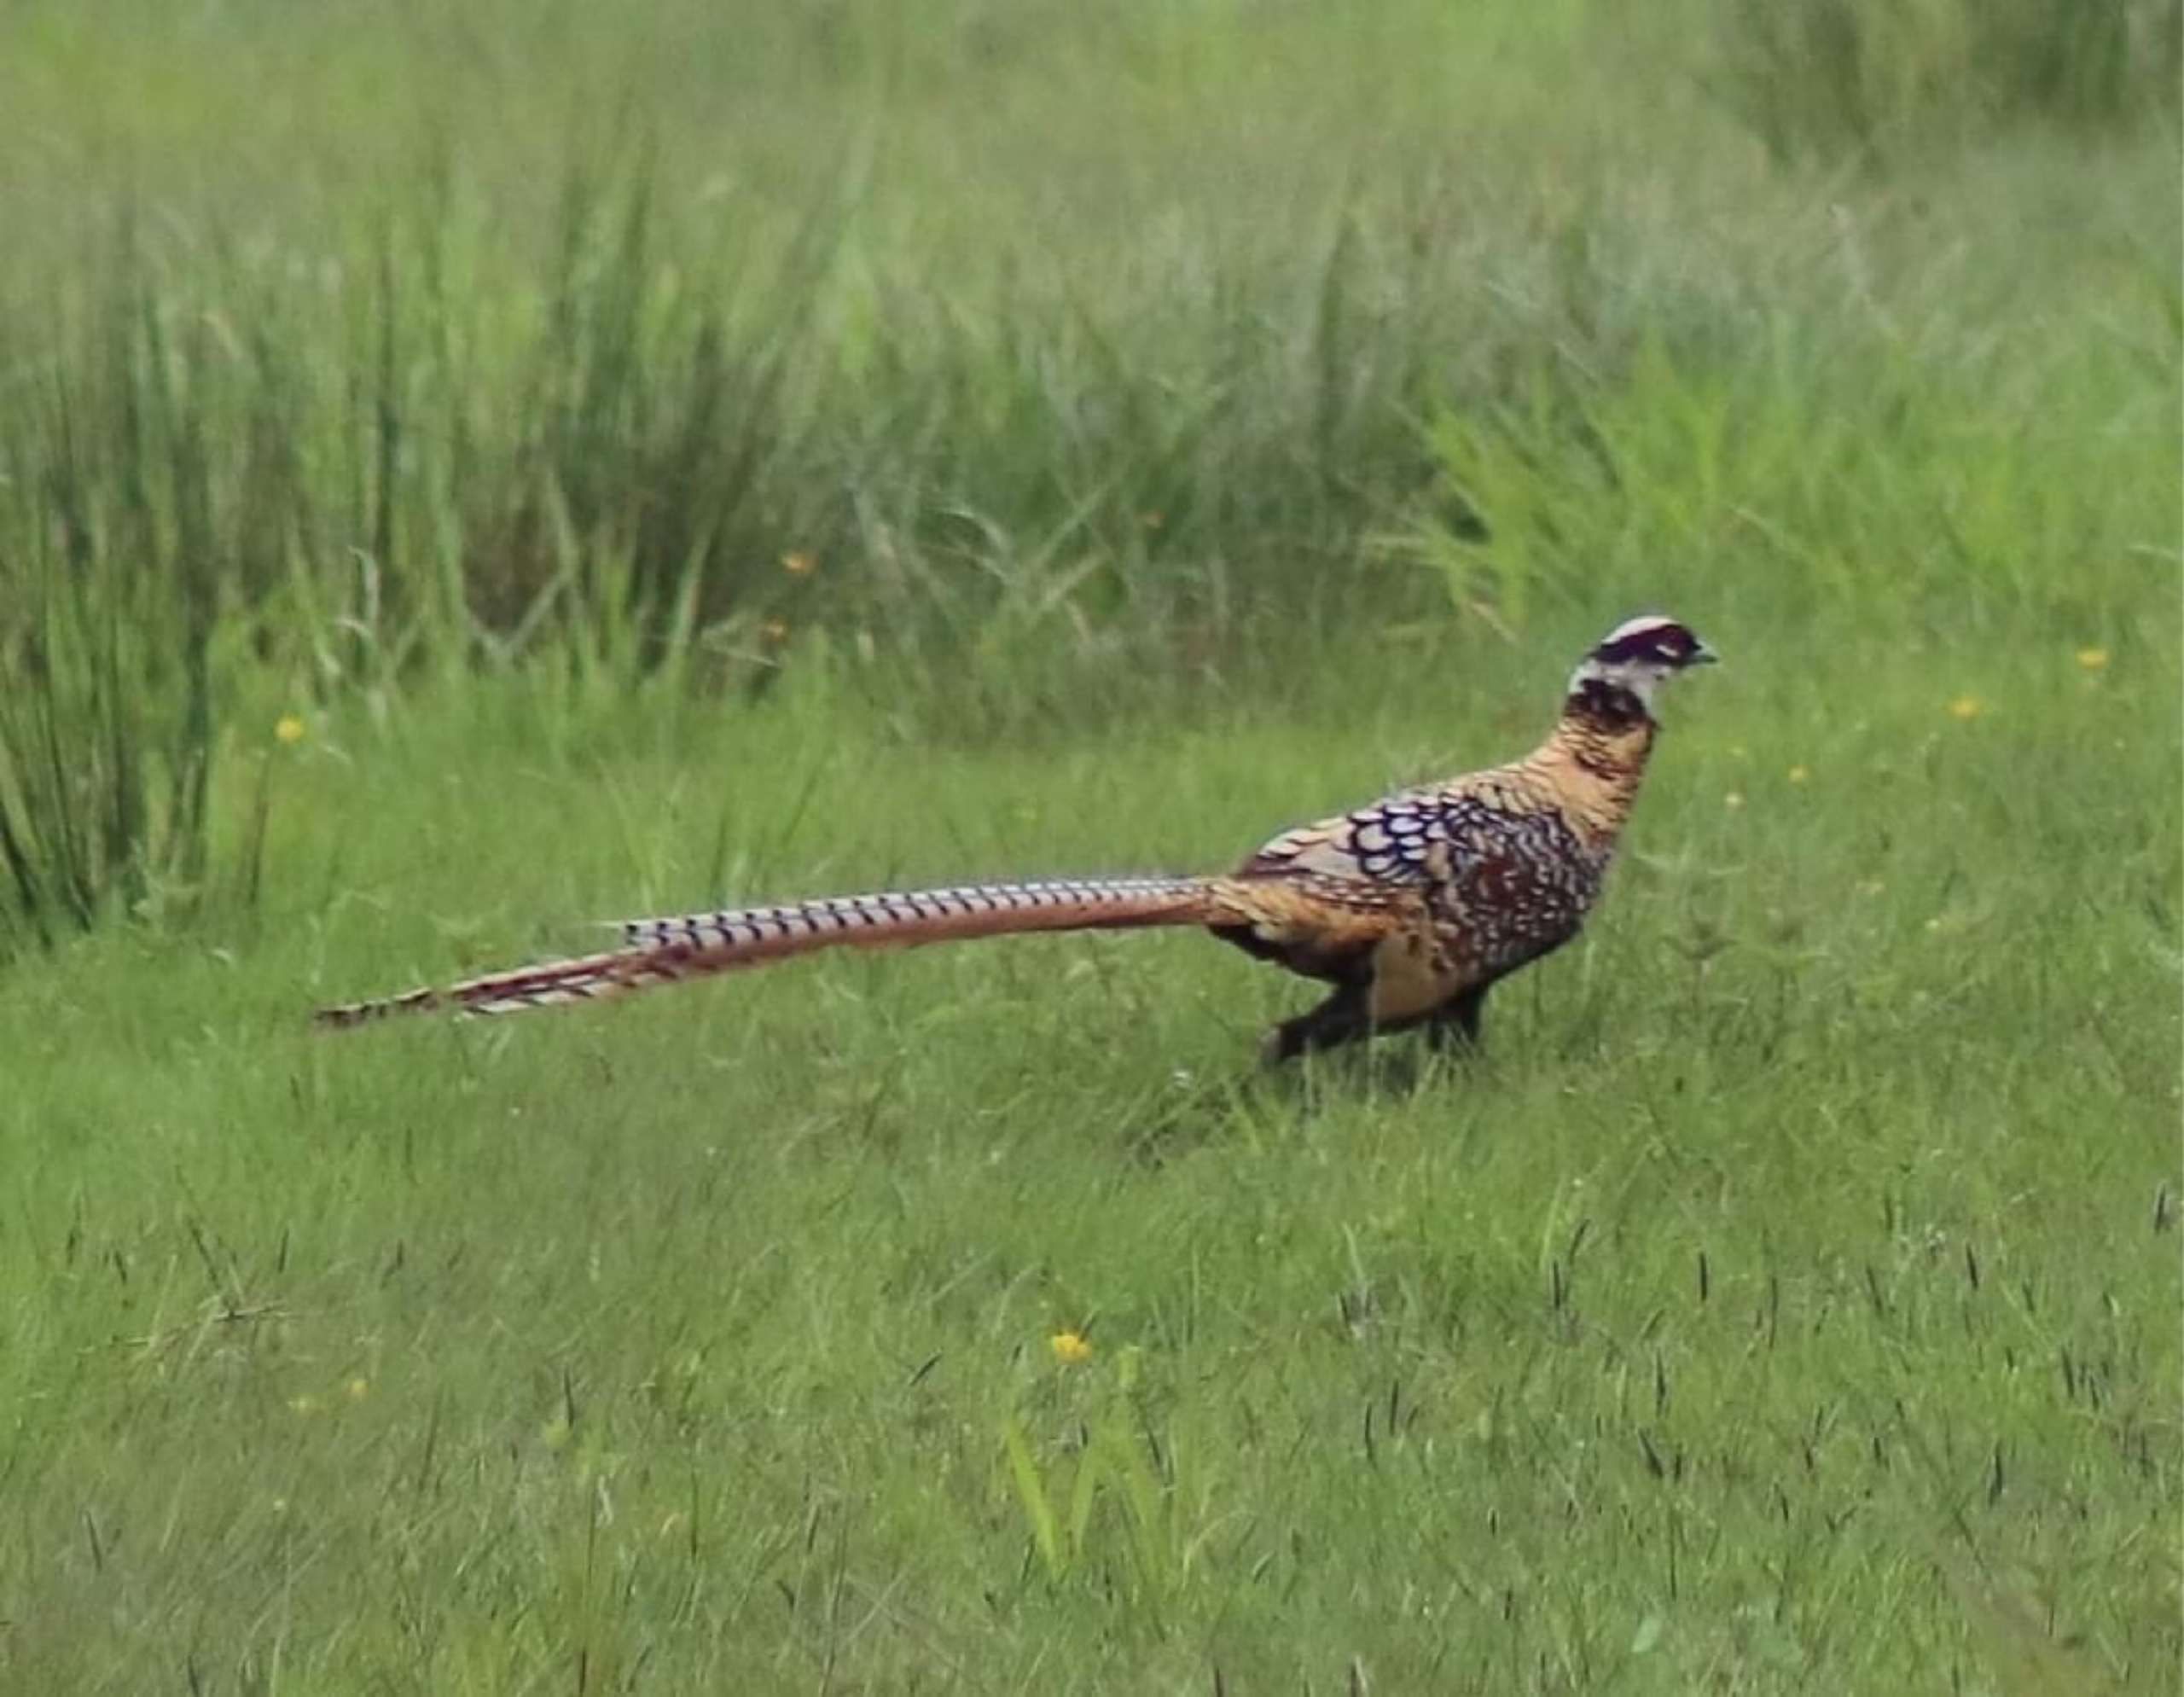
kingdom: Animalia
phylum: Chordata
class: Aves
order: Galliformes
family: Phasianidae
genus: Syrmaticus
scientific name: Syrmaticus reevesii
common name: Kongefasan
